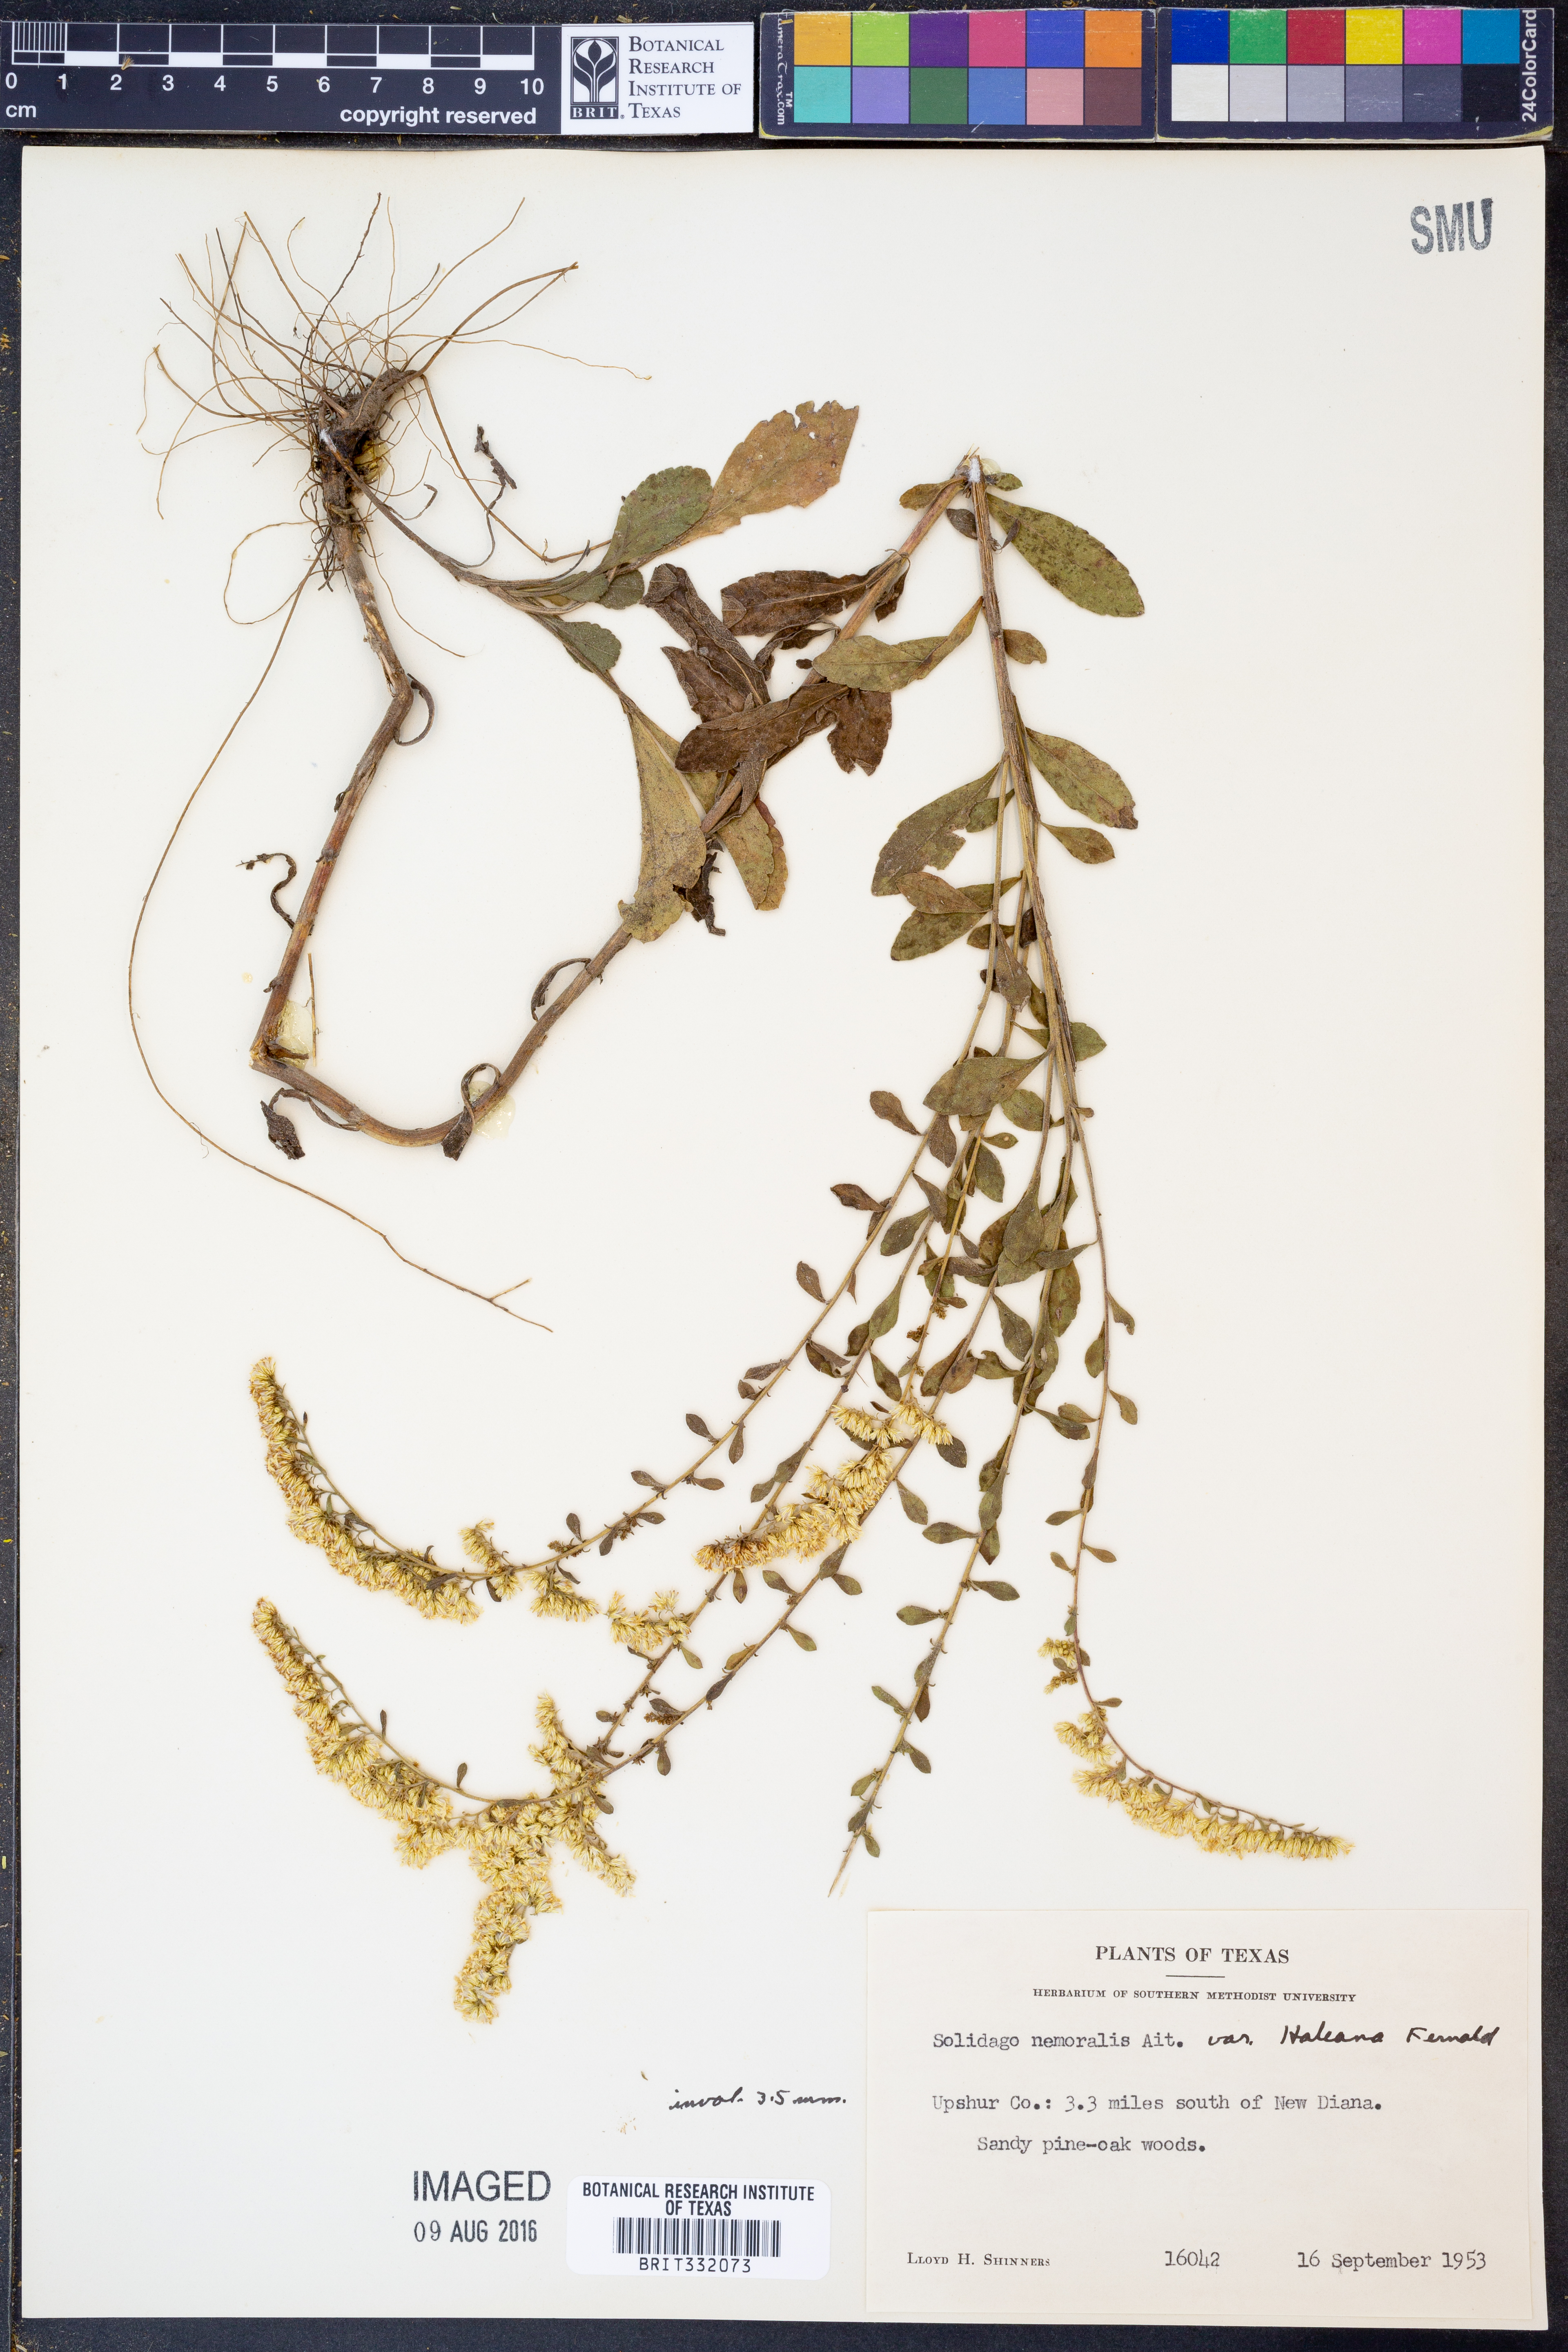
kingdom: Plantae
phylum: Tracheophyta
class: Magnoliopsida
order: Asterales
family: Asteraceae
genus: Solidago
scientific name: Solidago nemoralis
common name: Grey goldenrod
